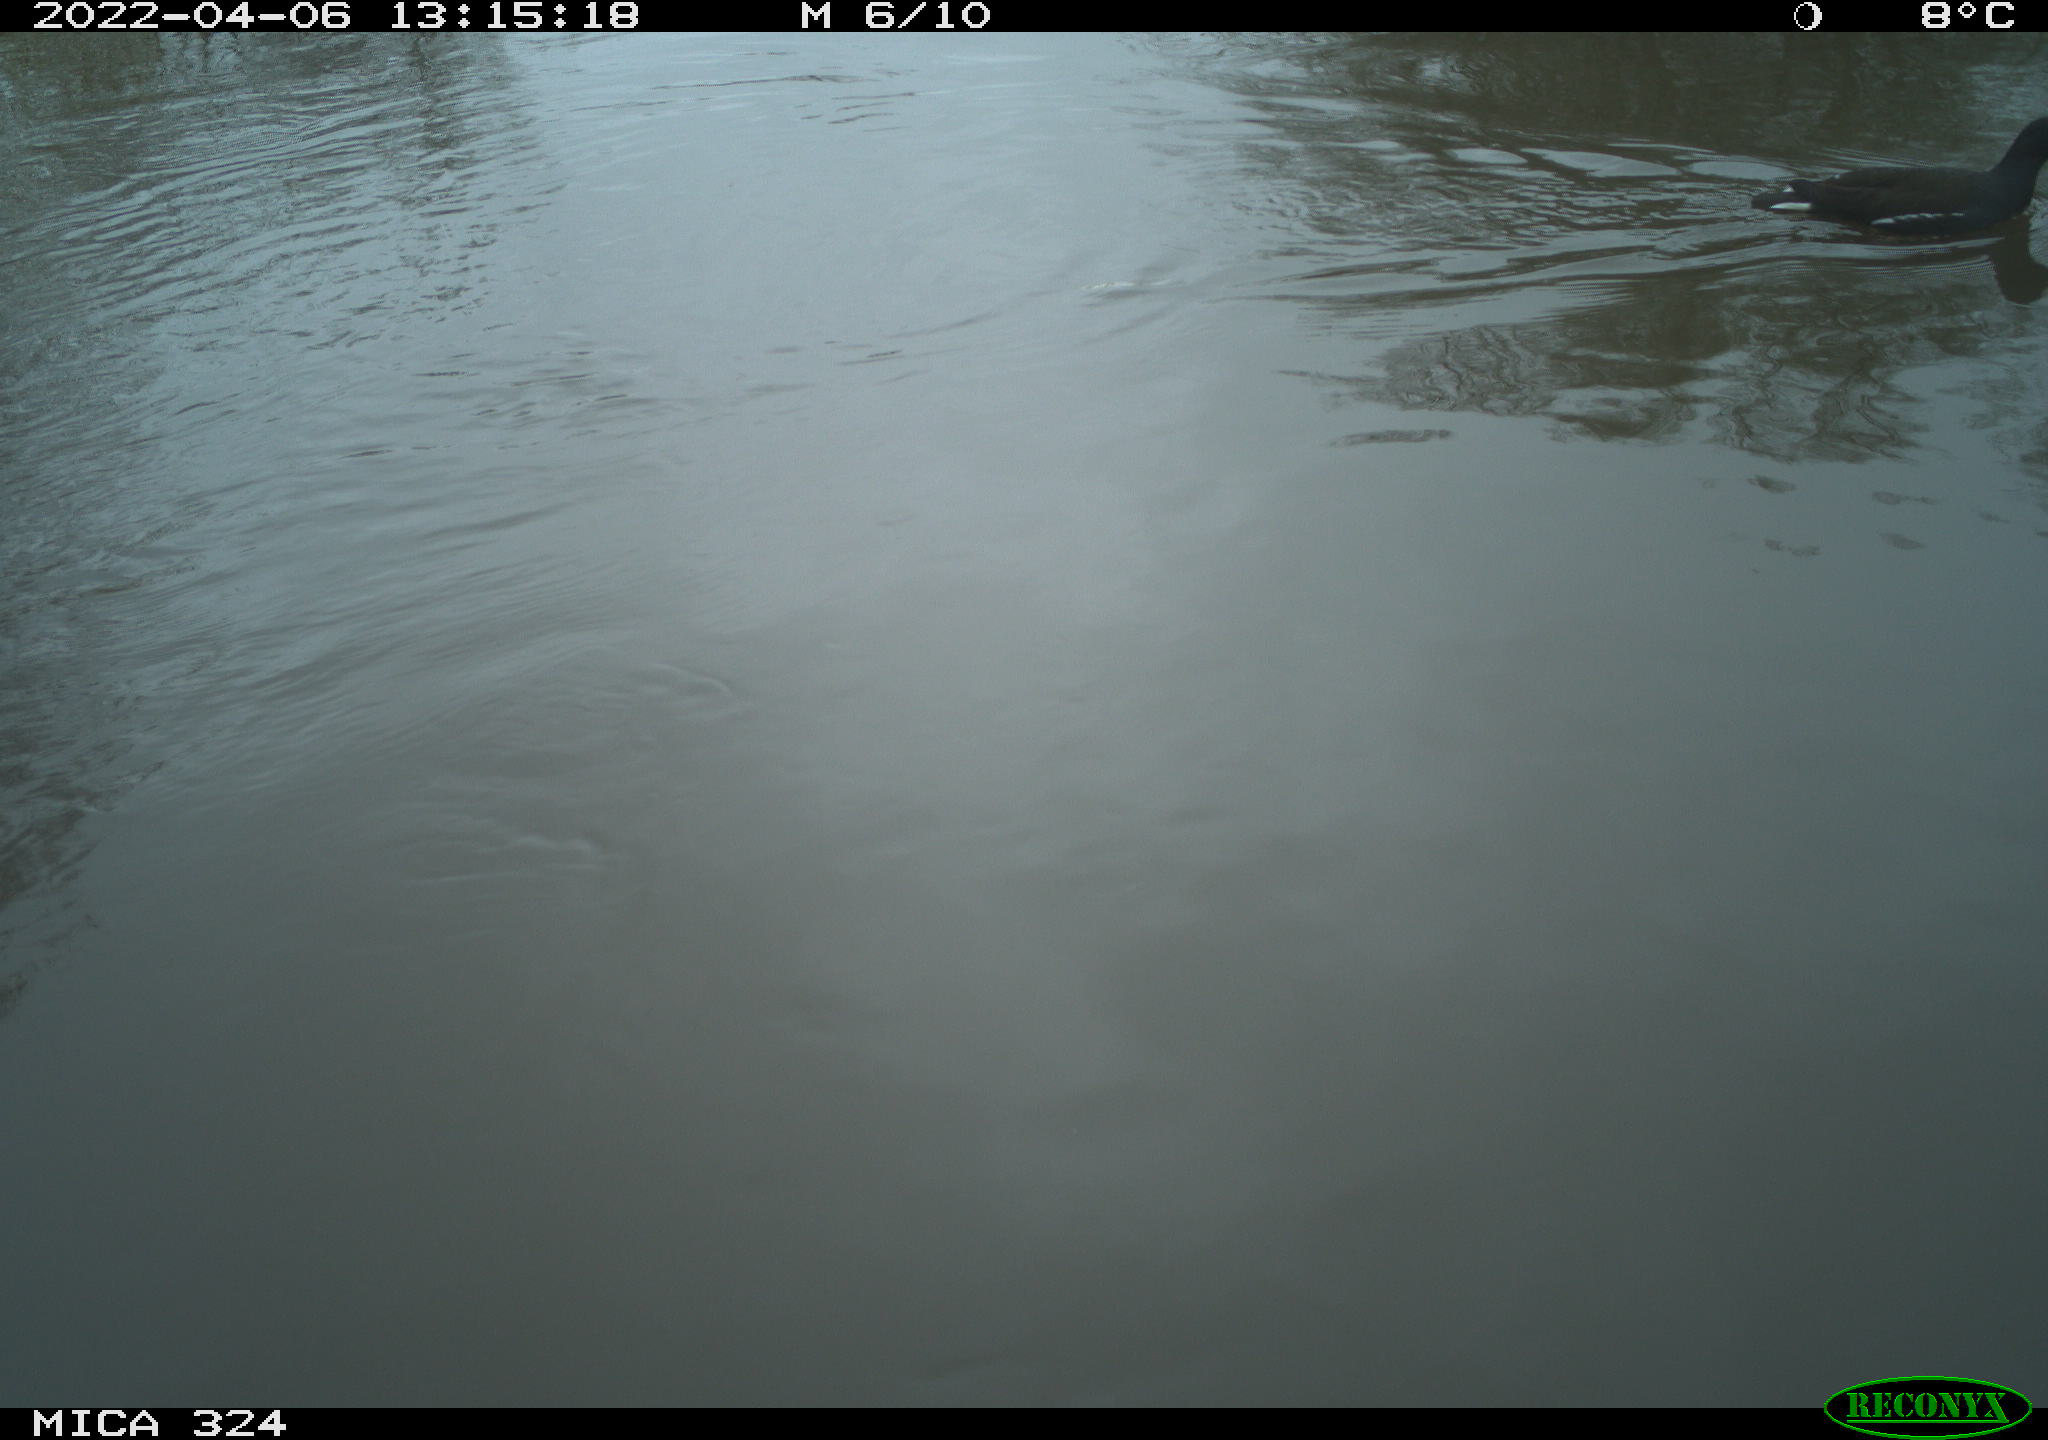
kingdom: Animalia
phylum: Chordata
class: Aves
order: Gruiformes
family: Rallidae
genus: Gallinula
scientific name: Gallinula chloropus
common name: Common moorhen
